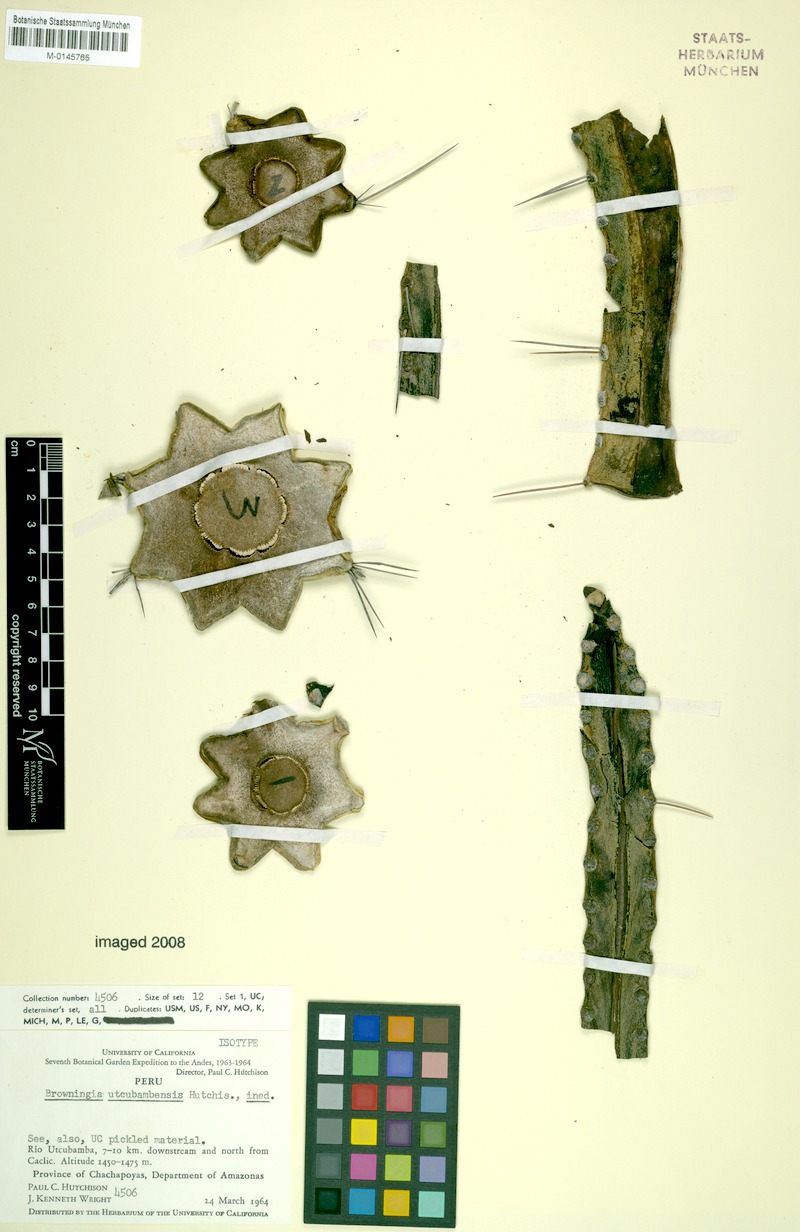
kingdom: Plantae
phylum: Tracheophyta
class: Magnoliopsida
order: Caryophyllales
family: Cactaceae
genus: Browningia
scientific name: Browningia utcubambensis
